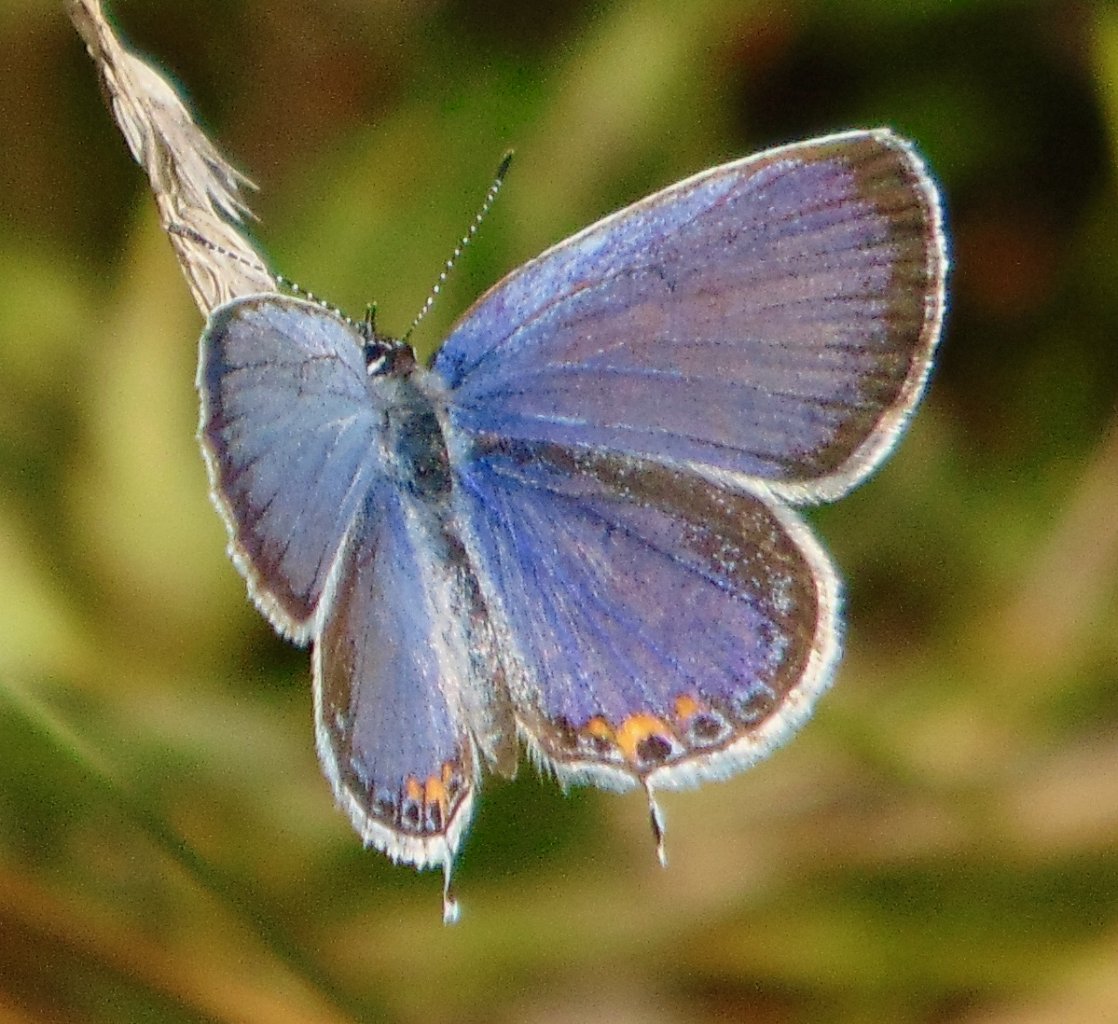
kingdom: Animalia
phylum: Arthropoda
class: Insecta
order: Lepidoptera
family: Lycaenidae
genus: Elkalyce
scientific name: Elkalyce comyntas
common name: Eastern Tailed-Blue
